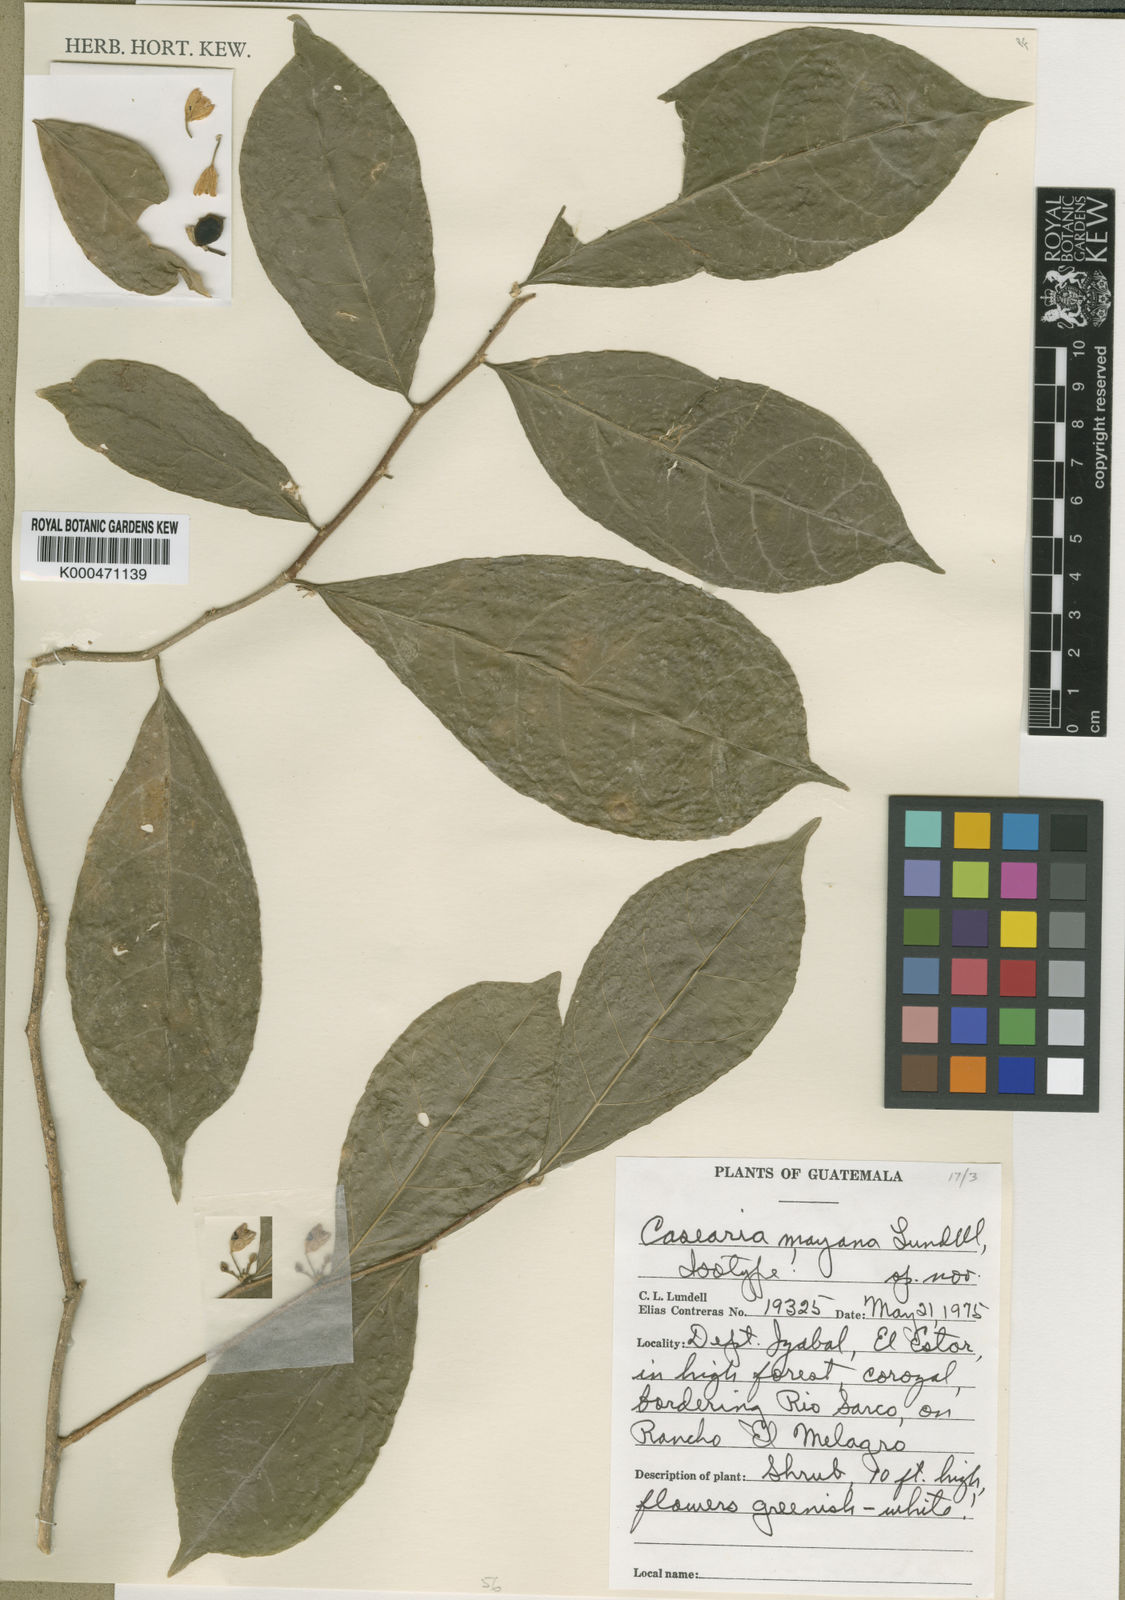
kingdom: Plantae
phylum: Tracheophyta
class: Magnoliopsida
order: Malpighiales
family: Salicaceae
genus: Casearia
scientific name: Casearia elegans
